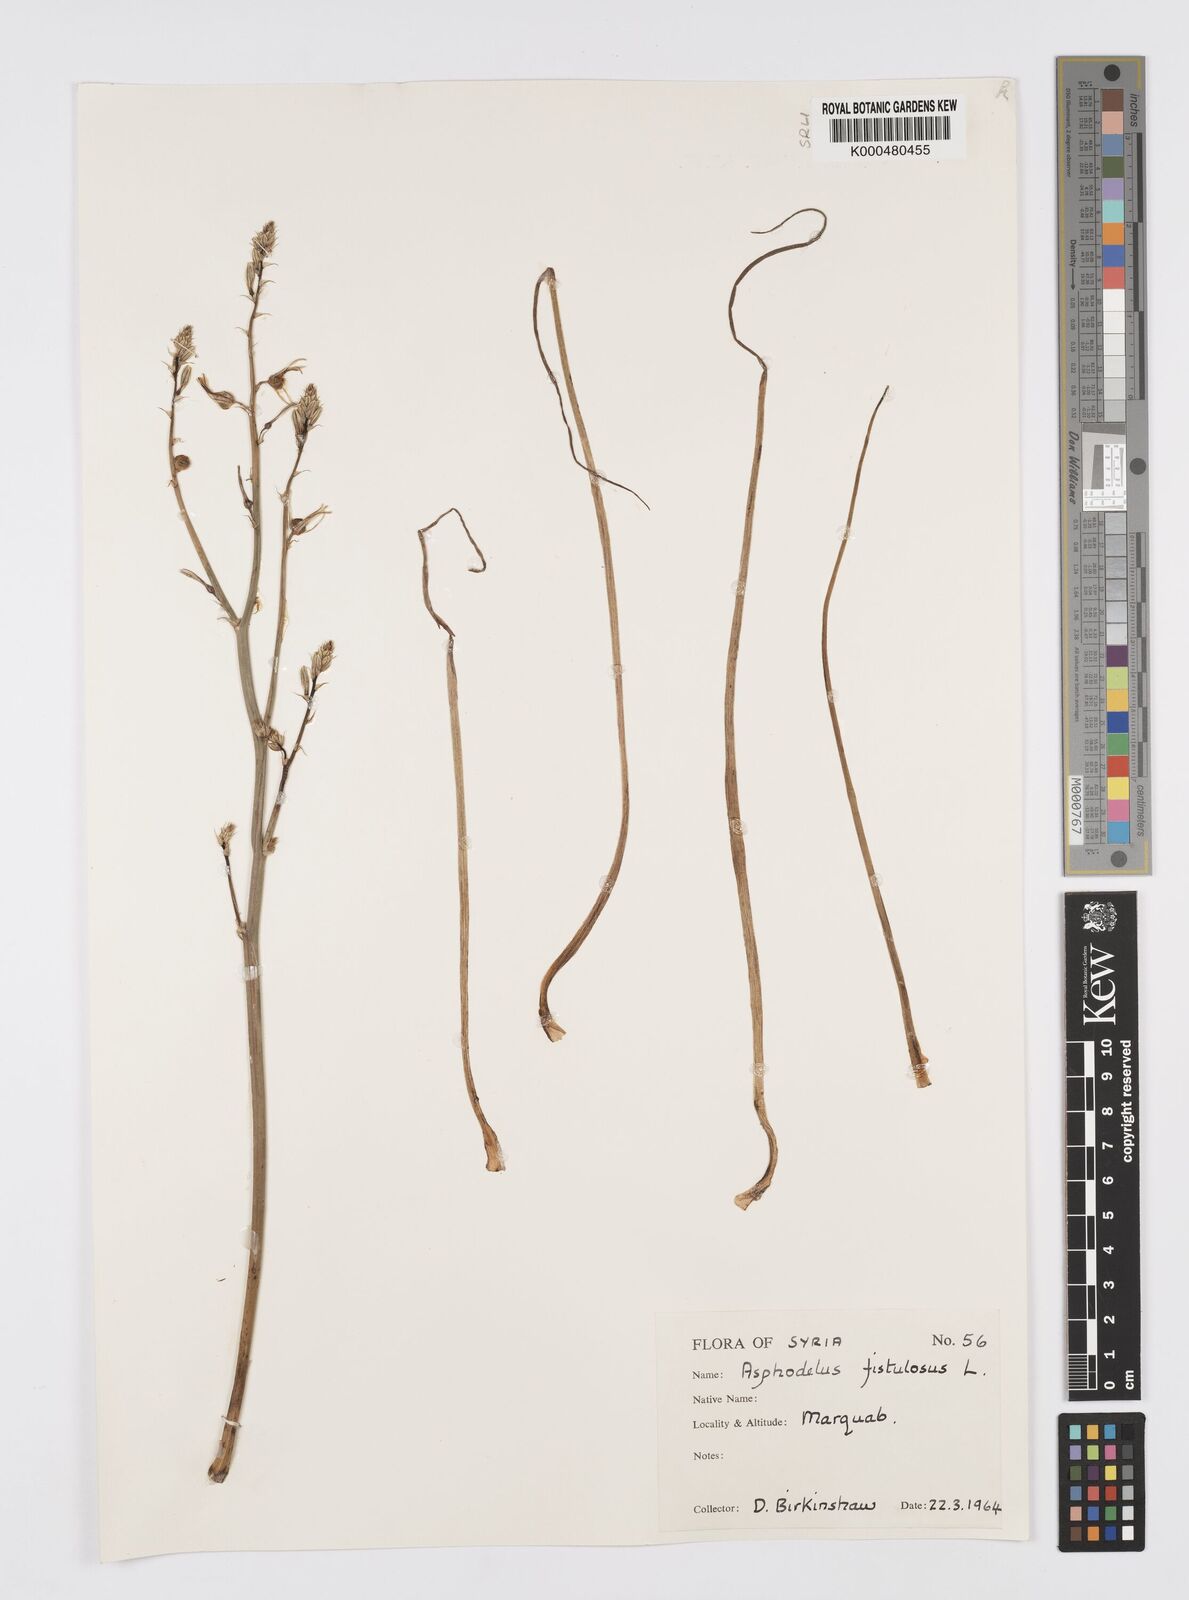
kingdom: Plantae
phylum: Tracheophyta
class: Liliopsida
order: Asparagales
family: Asphodelaceae
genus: Asphodelus
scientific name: Asphodelus fistulosus
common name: Onionweed
